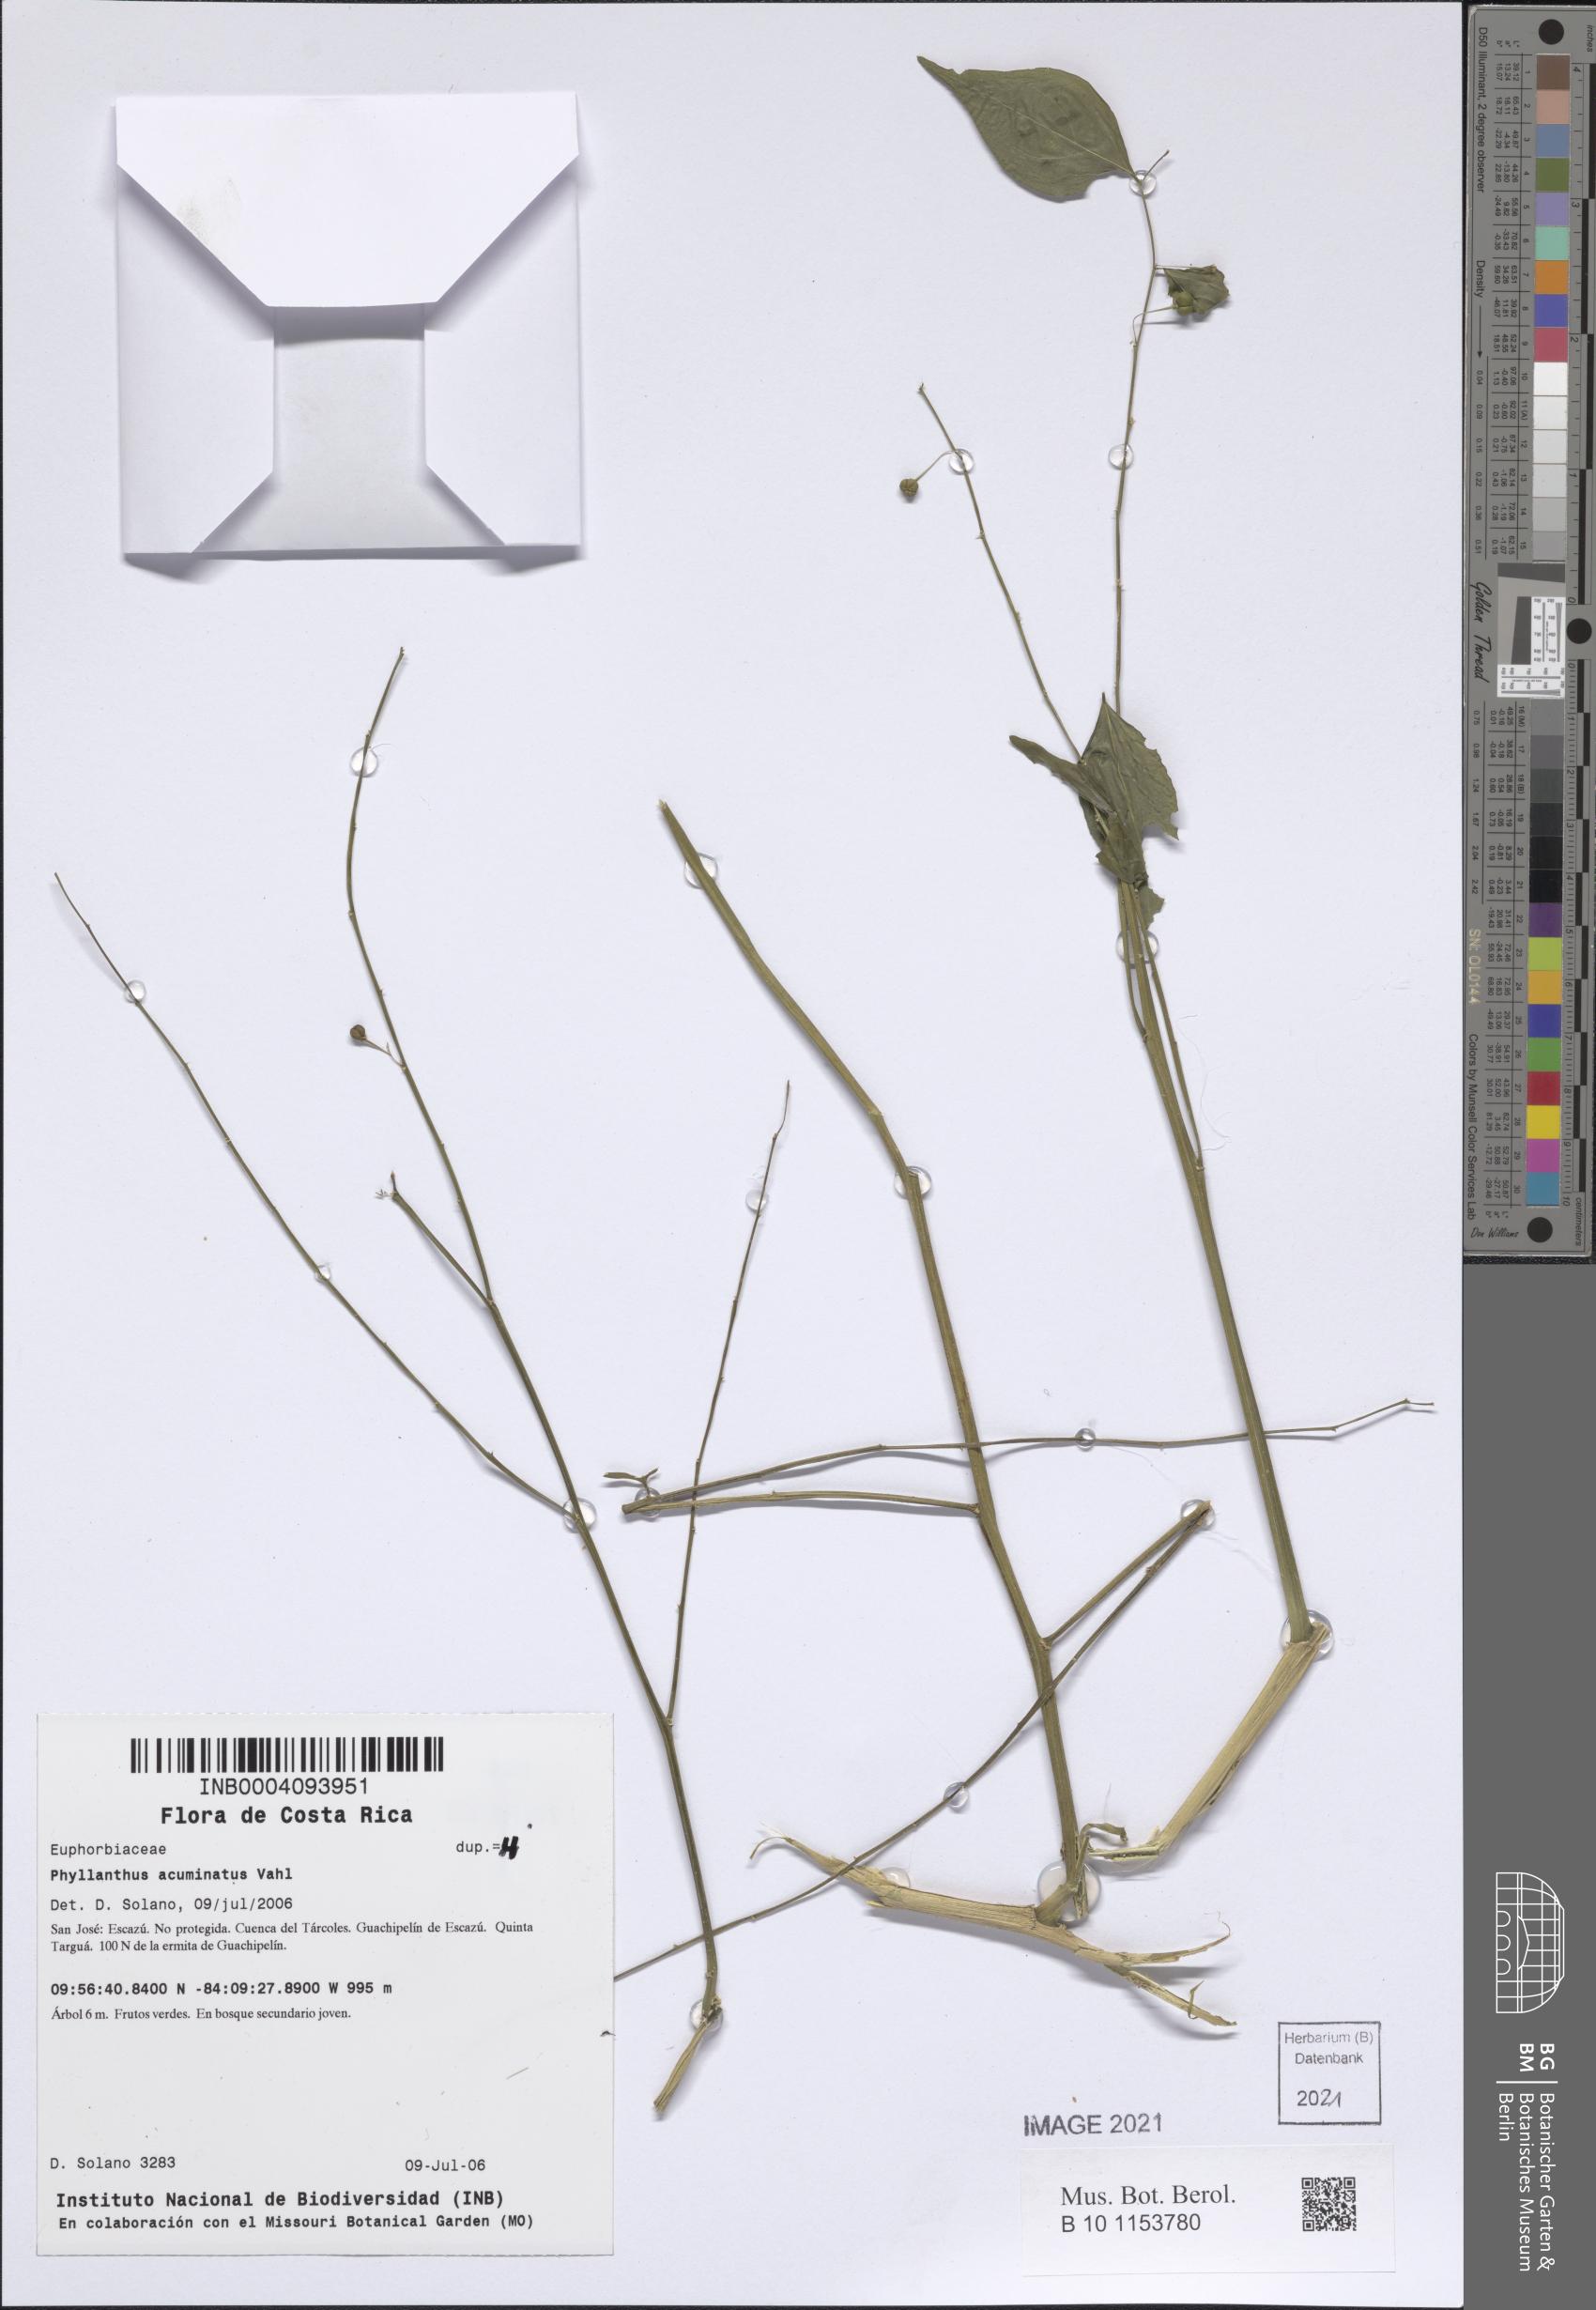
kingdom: Plantae
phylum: Tracheophyta
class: Magnoliopsida
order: Malpighiales
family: Phyllanthaceae
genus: Phyllanthus
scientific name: Phyllanthus acuminatus
